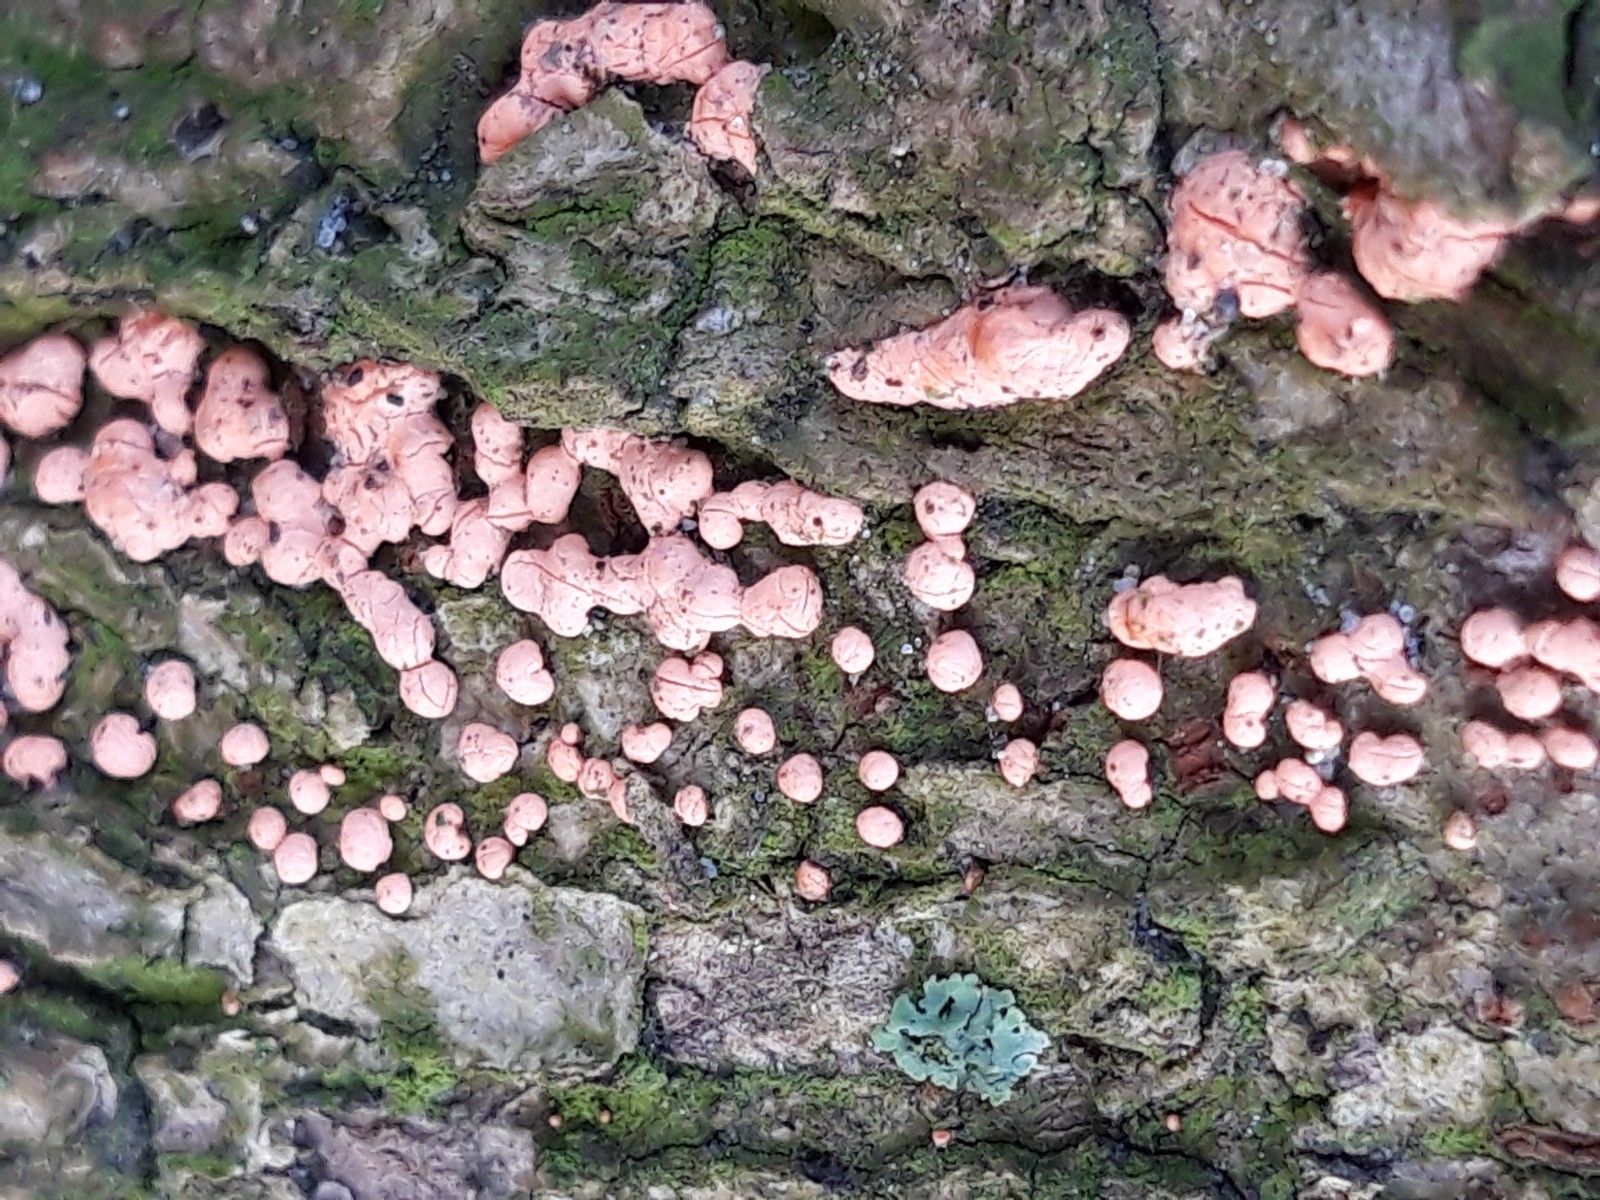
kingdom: Fungi
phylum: Ascomycota
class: Sordariomycetes
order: Hypocreales
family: Nectriaceae
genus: Nectria
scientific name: Nectria cinnabarina
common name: almindelig cinnobersvamp
